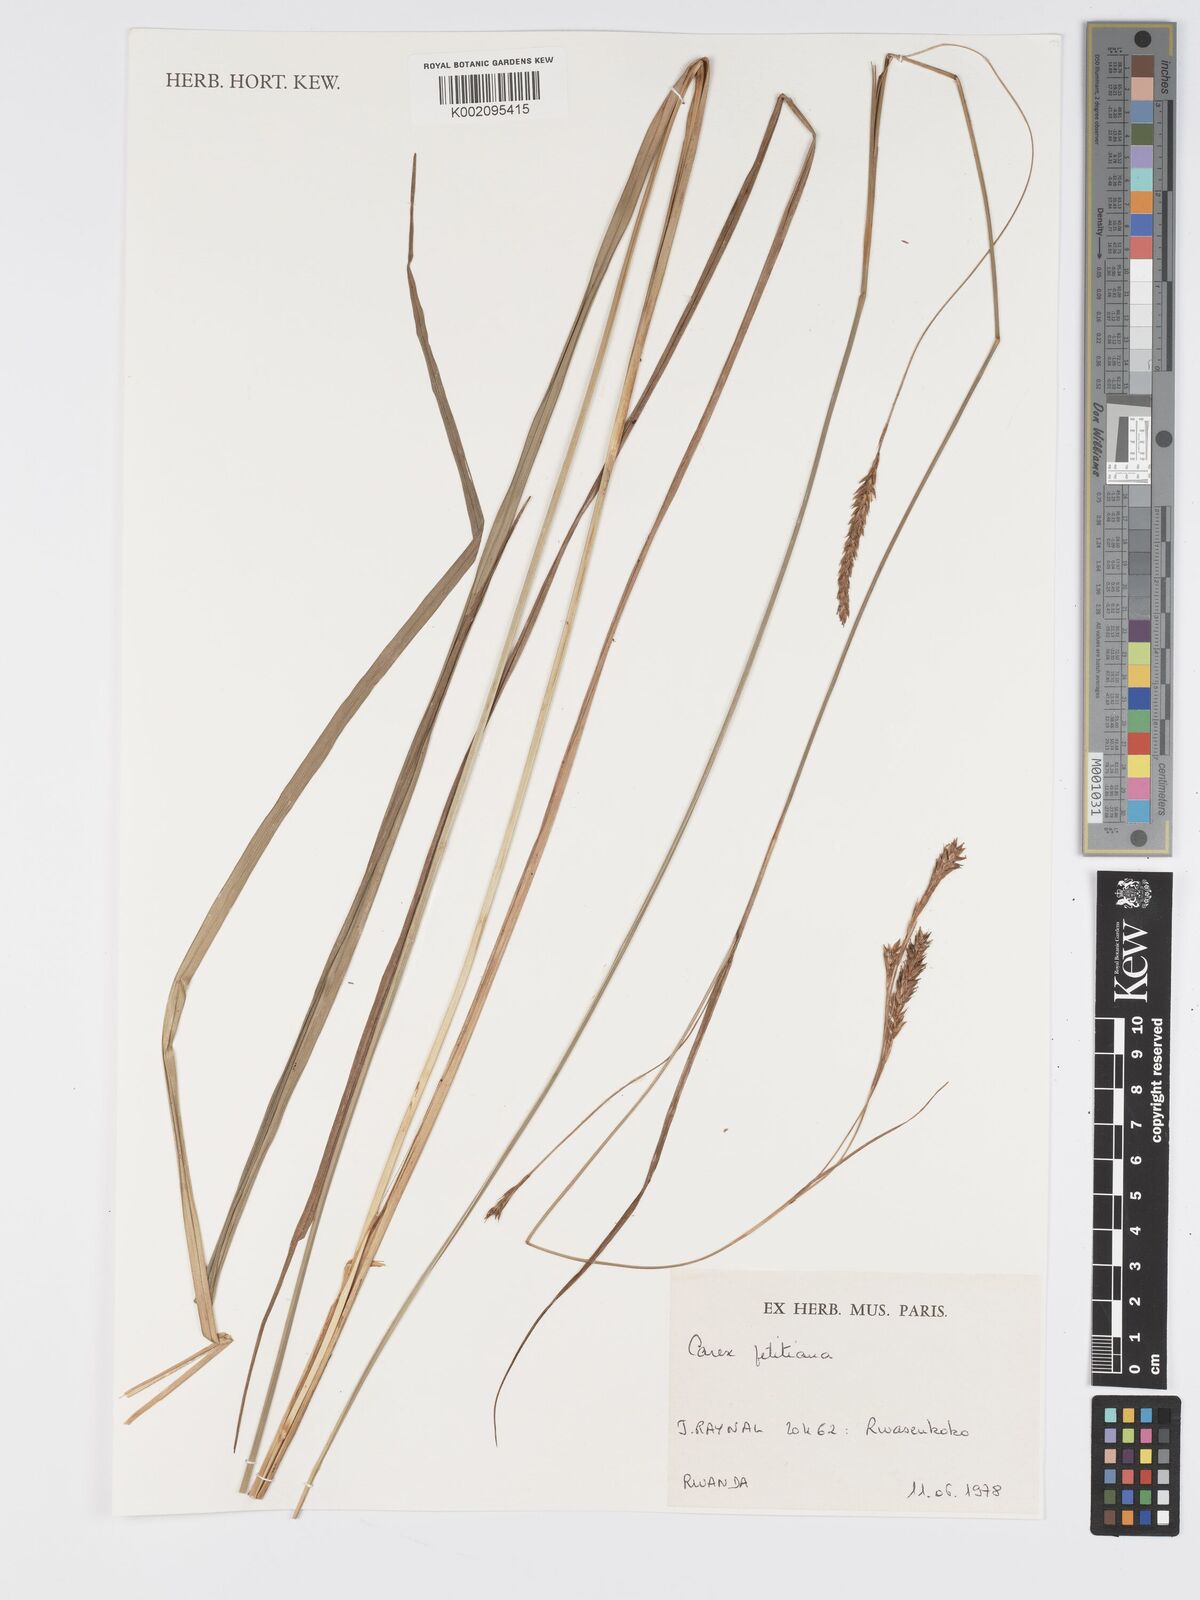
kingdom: Plantae
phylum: Tracheophyta
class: Liliopsida
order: Poales
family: Cyperaceae
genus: Carex
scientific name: Carex petitiana
